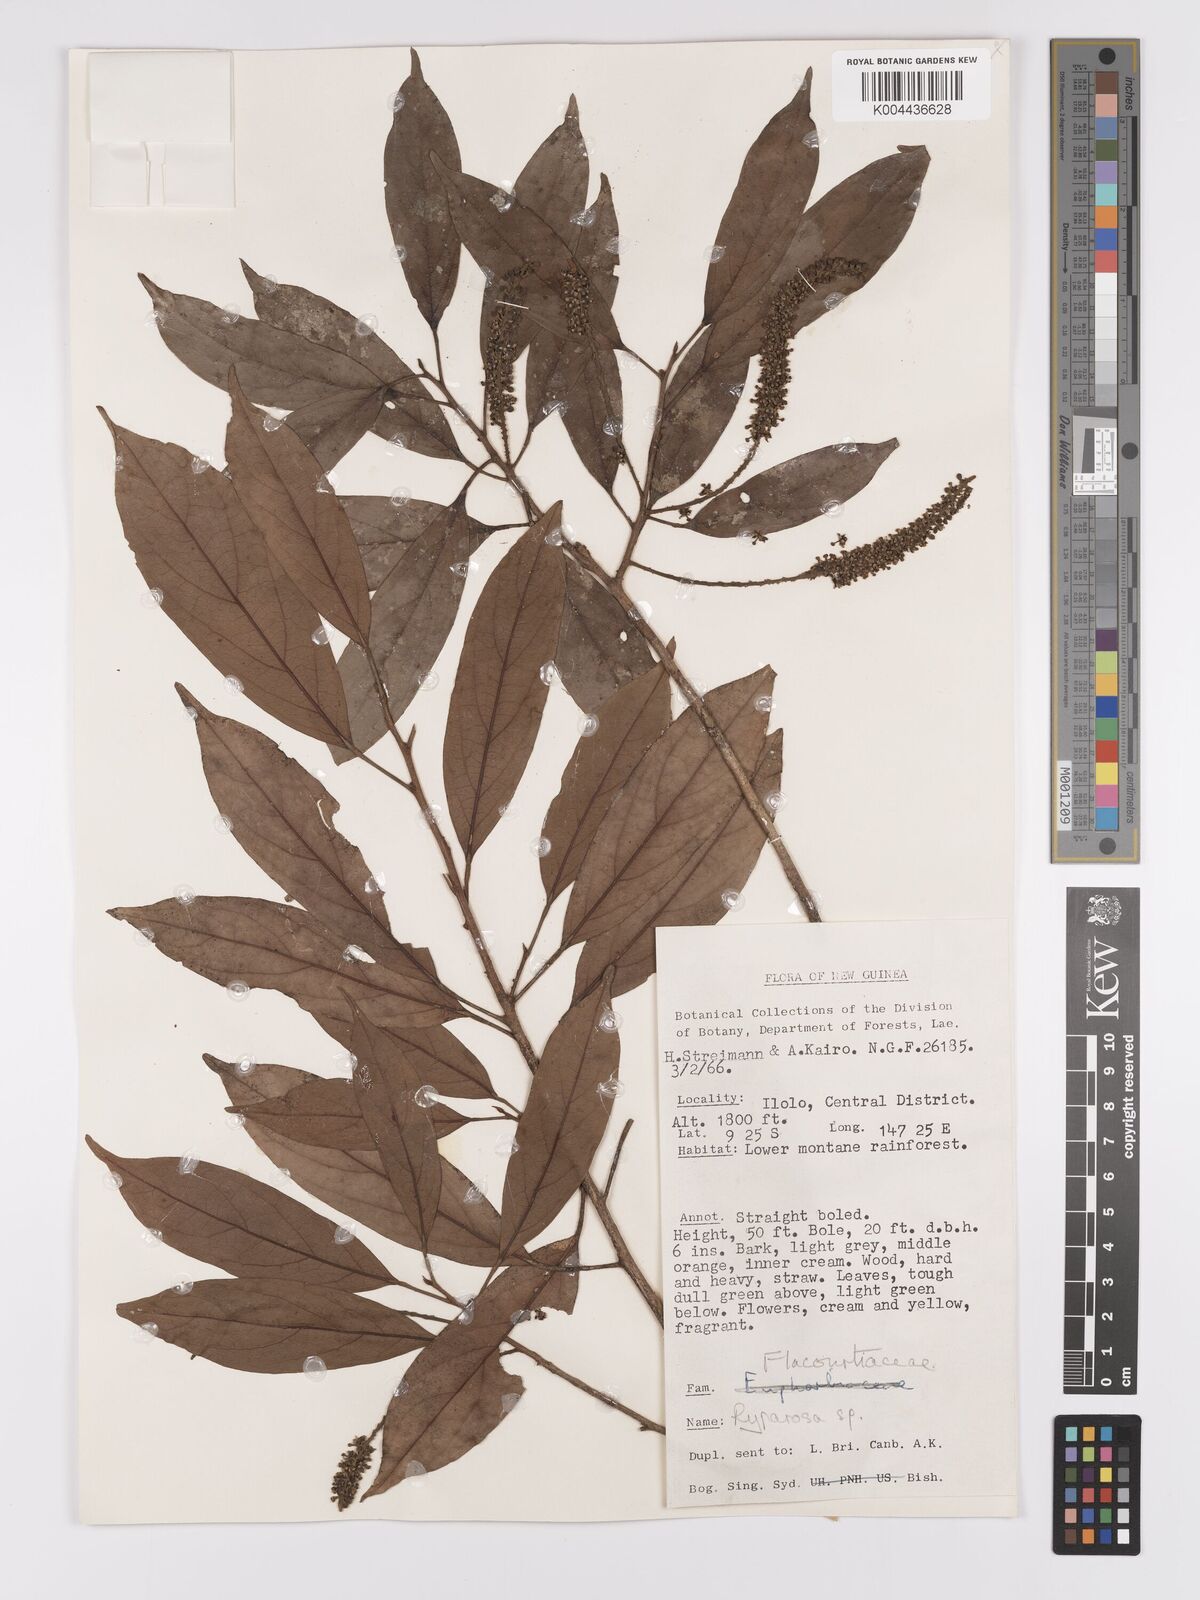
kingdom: Plantae
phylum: Tracheophyta
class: Magnoliopsida
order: Malpighiales
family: Achariaceae
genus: Ryparosa
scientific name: Ryparosa
